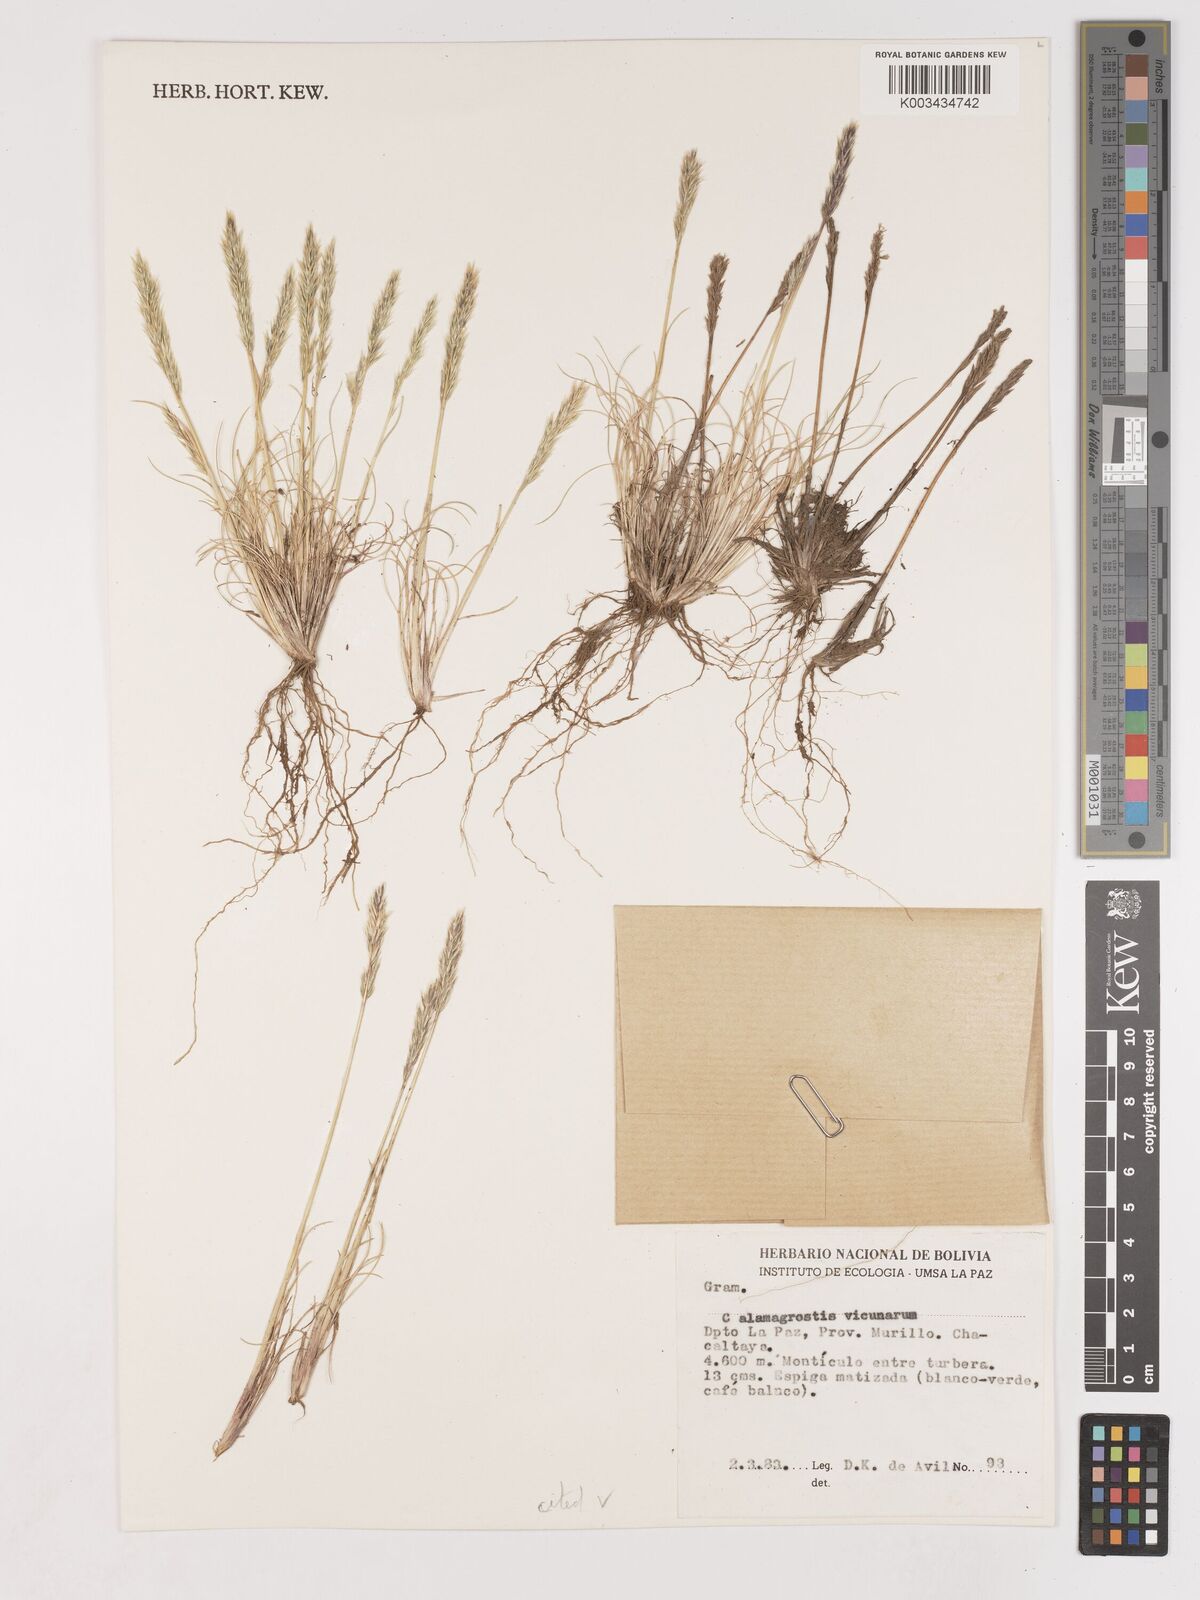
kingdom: Plantae
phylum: Tracheophyta
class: Liliopsida
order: Poales
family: Poaceae
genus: Cinnagrostis
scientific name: Cinnagrostis vicunarum
